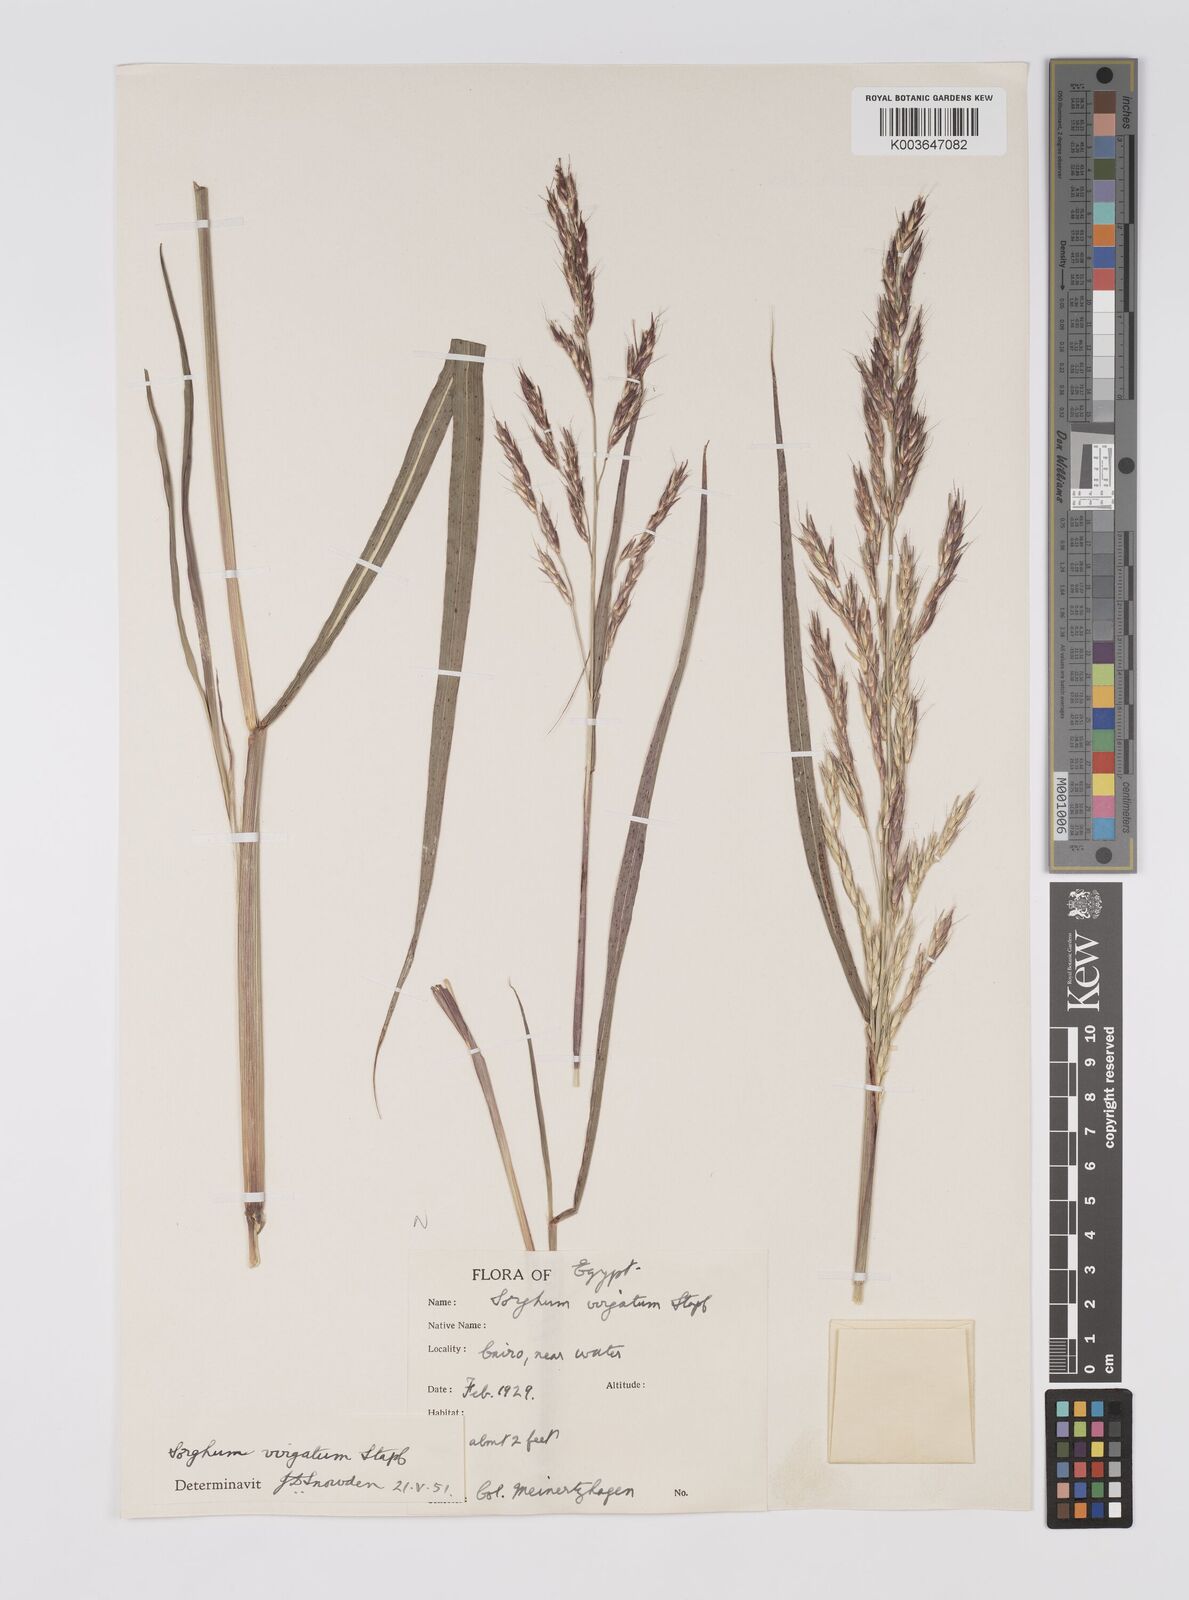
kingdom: Plantae
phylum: Tracheophyta
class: Liliopsida
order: Poales
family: Poaceae
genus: Sorghum
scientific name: Sorghum virgatum
